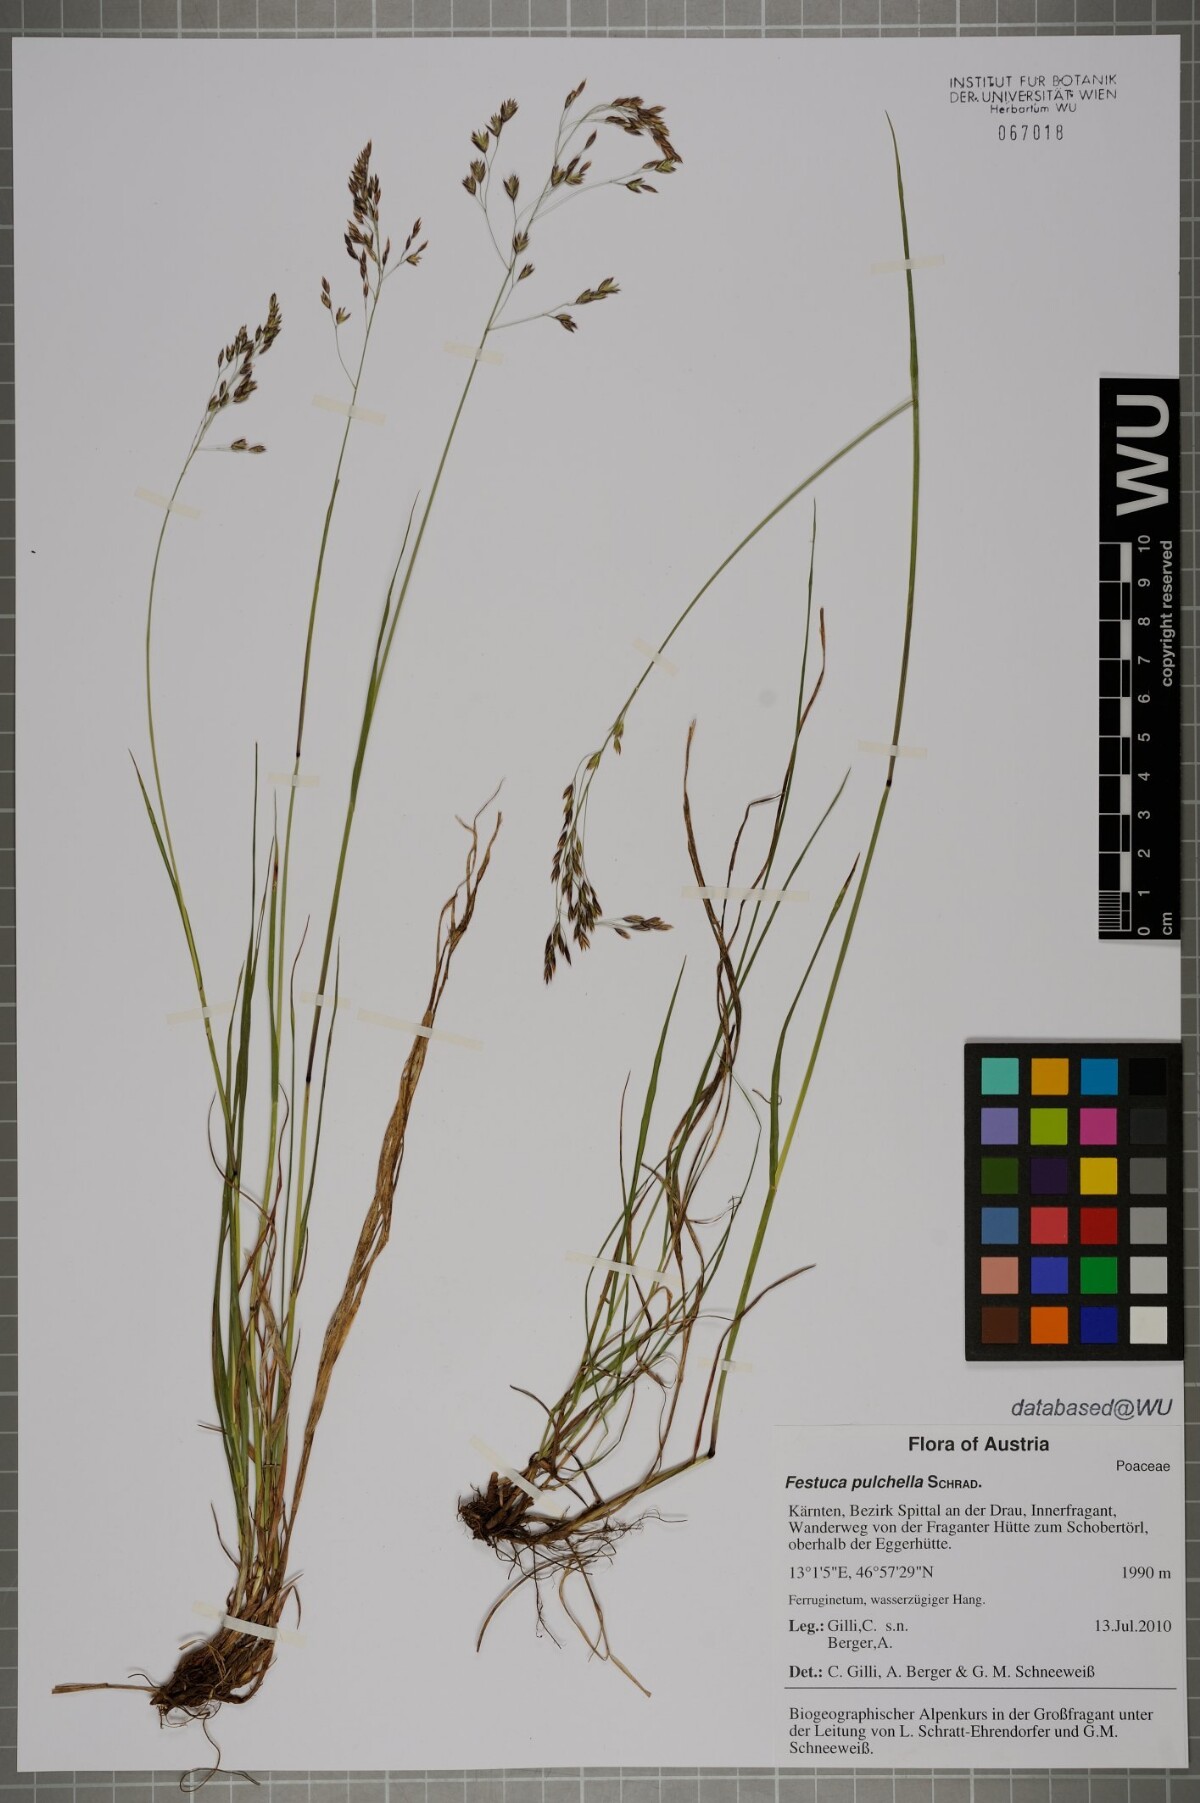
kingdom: Plantae
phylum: Tracheophyta
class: Liliopsida
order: Poales
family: Poaceae
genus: Festuca
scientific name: Festuca pulchella
